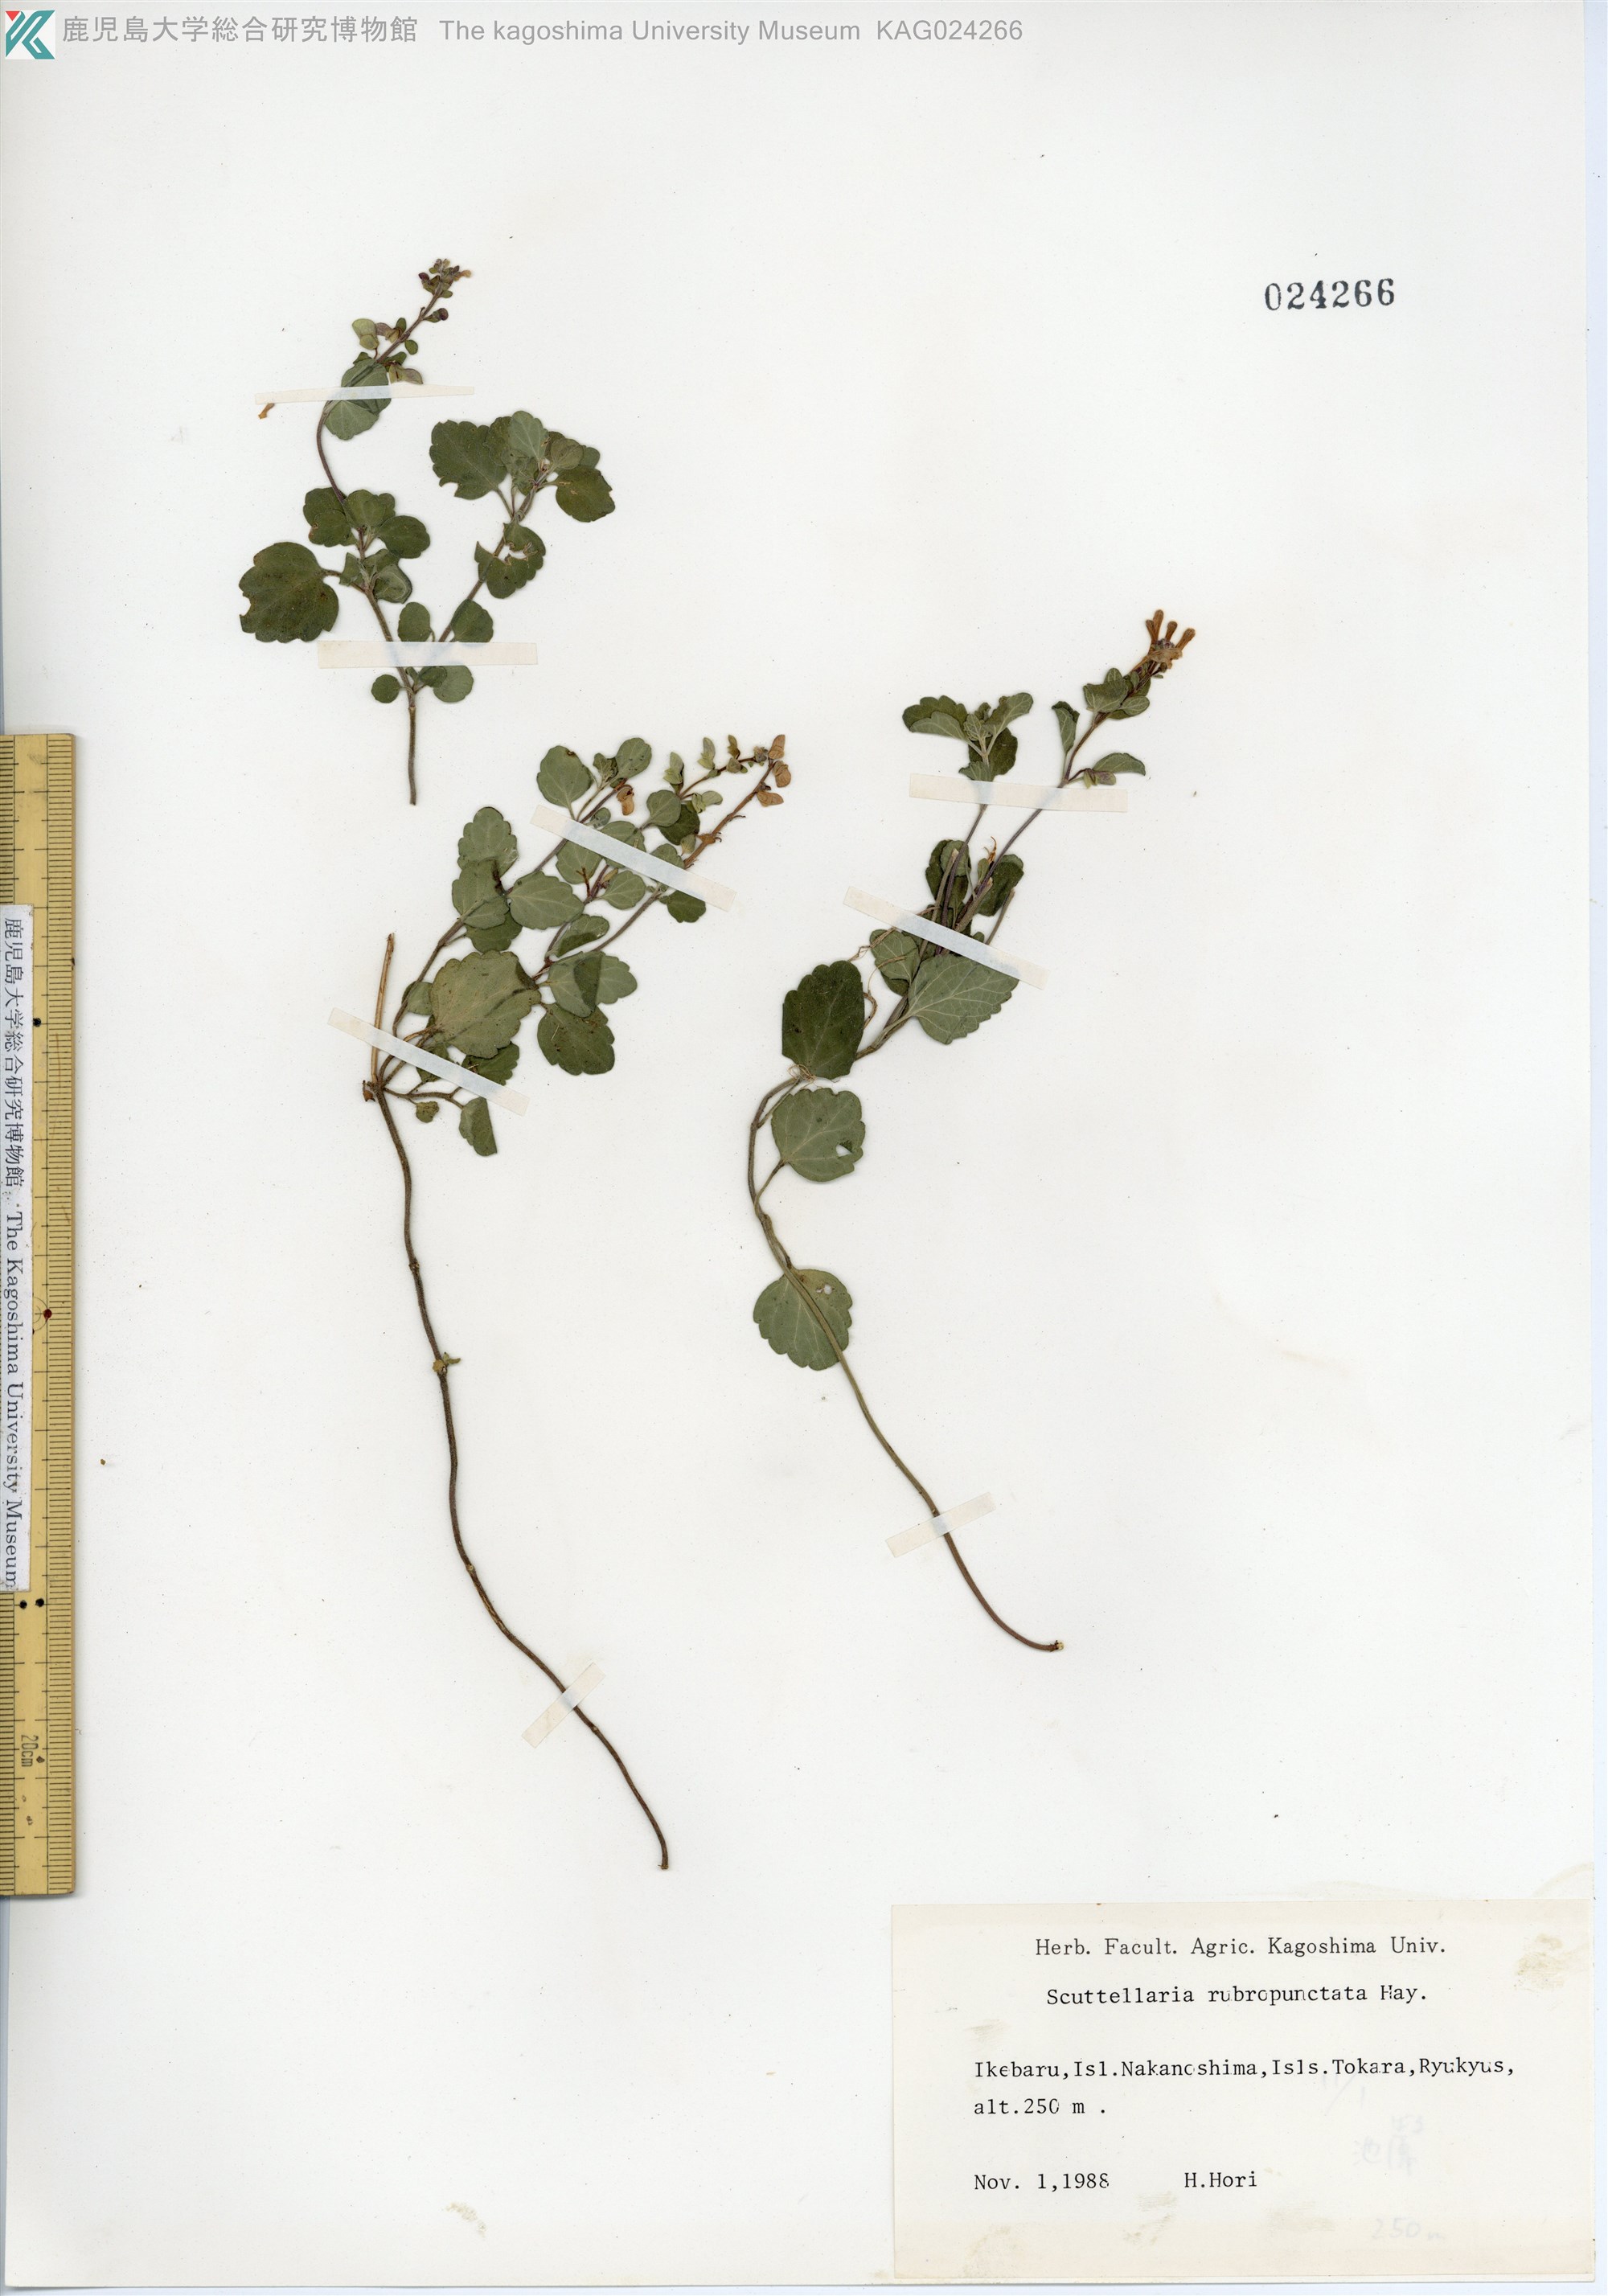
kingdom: Plantae
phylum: Tracheophyta
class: Magnoliopsida
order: Lamiales
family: Lamiaceae
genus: Scutellaria
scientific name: Scutellaria rubropunctata
